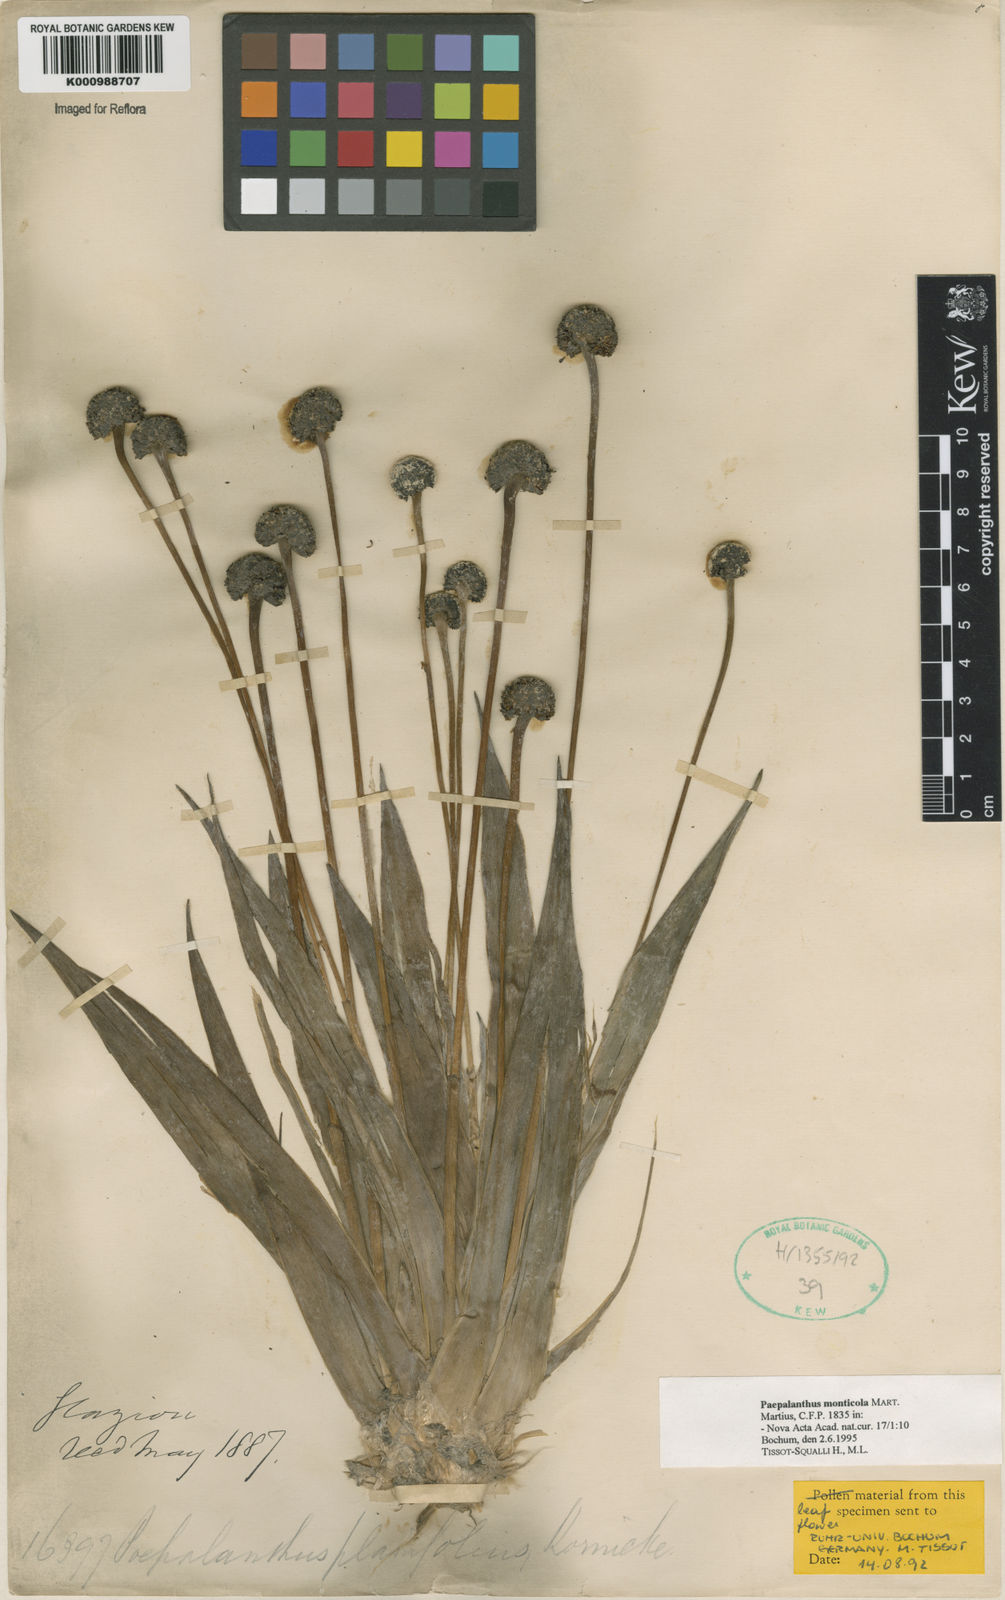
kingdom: Plantae
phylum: Tracheophyta
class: Liliopsida
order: Poales
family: Eriocaulaceae
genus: Paepalanthus
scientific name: Paepalanthus planifolius
